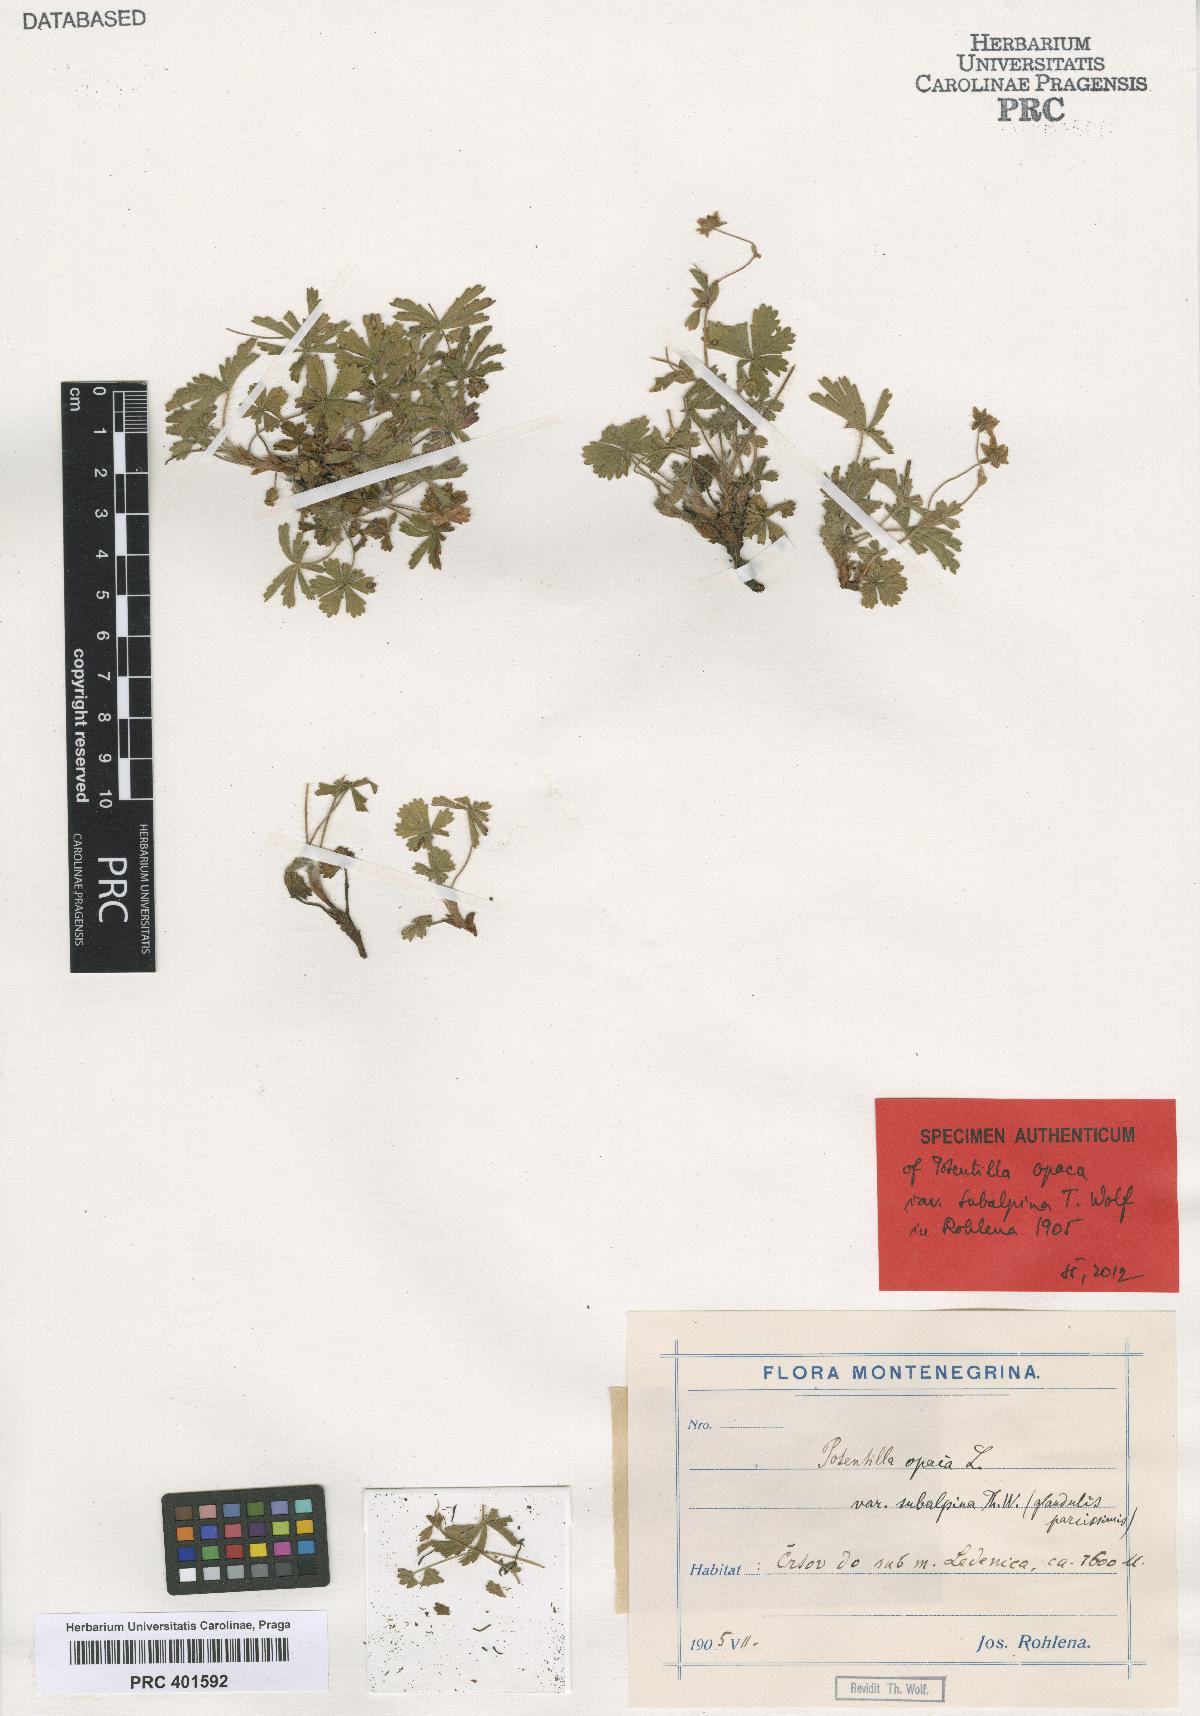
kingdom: Plantae
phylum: Tracheophyta
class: Magnoliopsida
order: Rosales
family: Rosaceae
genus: Potentilla
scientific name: Potentilla
